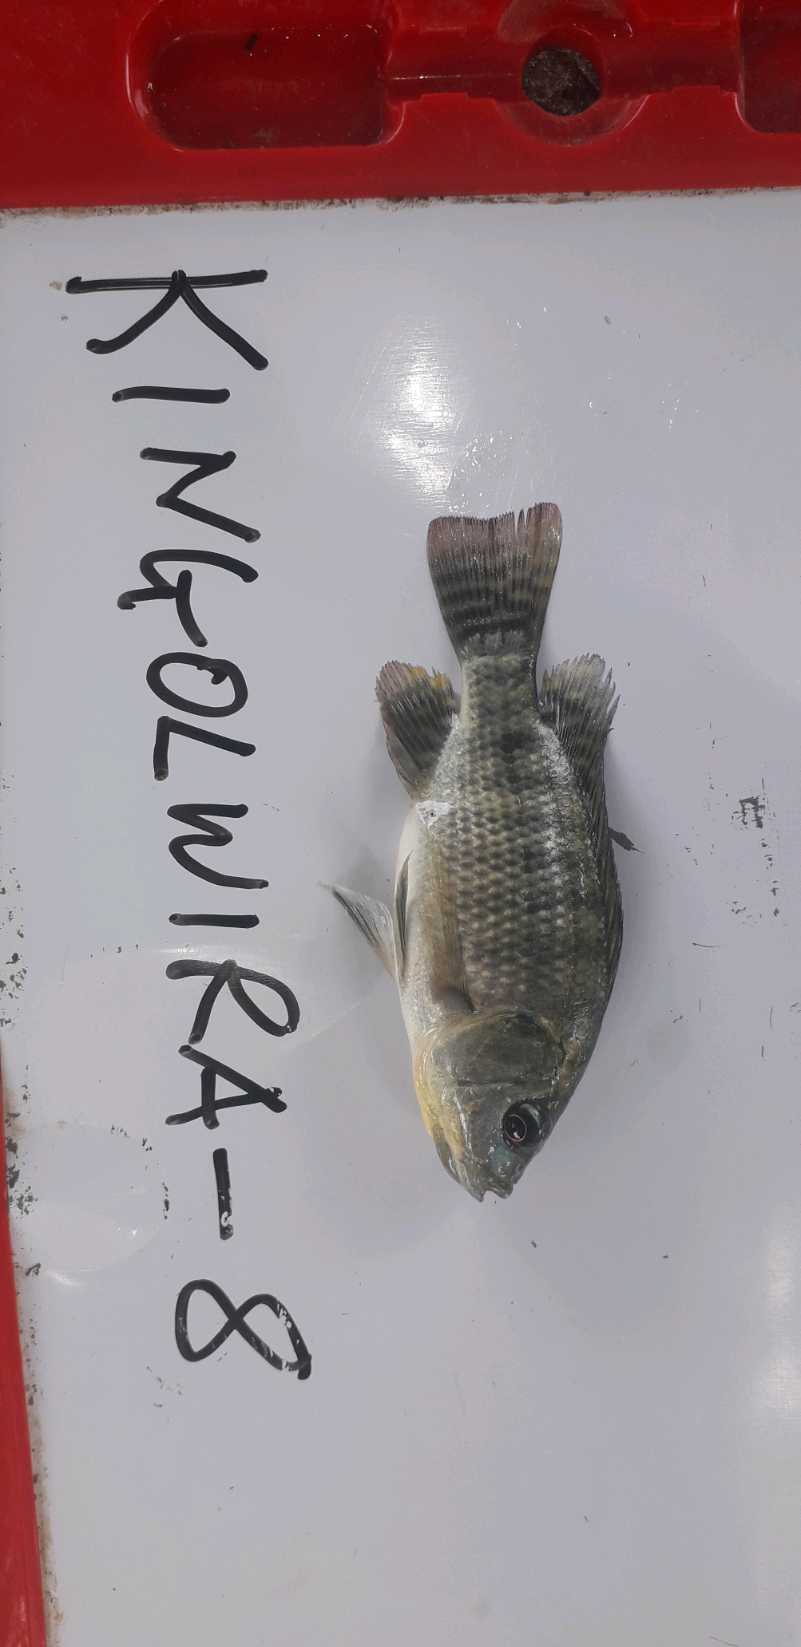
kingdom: Animalia
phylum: Chordata
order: Perciformes
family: Cichlidae
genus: Oreochromis
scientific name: Oreochromis niloticus
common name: Nile tilapia
